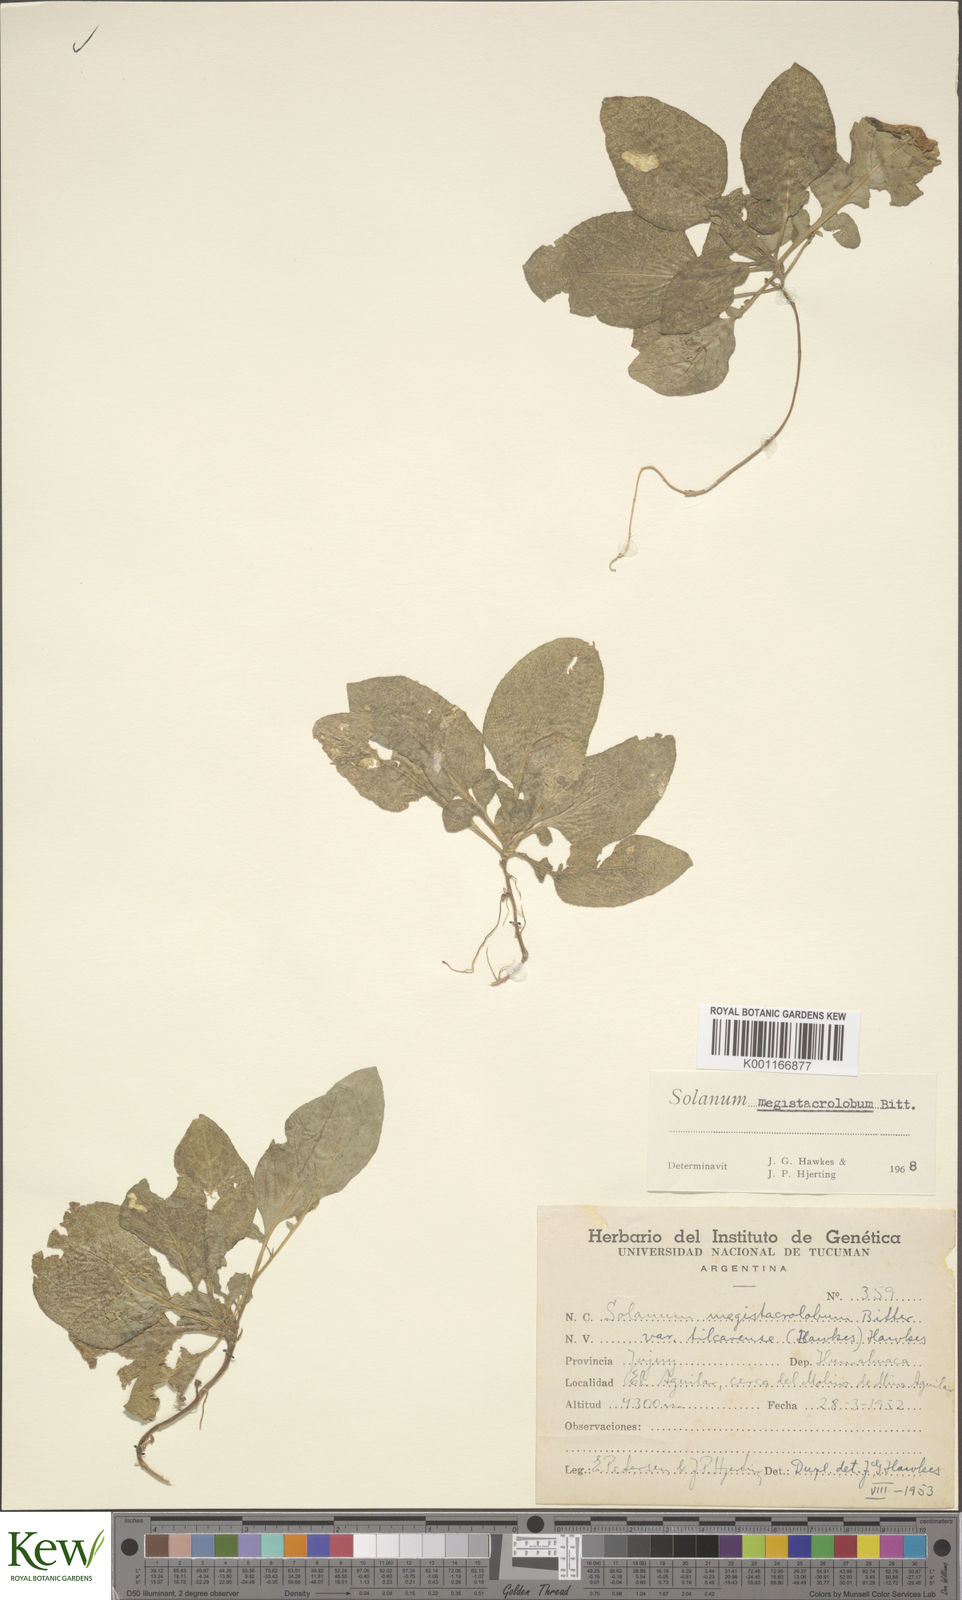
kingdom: Plantae
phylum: Tracheophyta
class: Magnoliopsida
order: Solanales
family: Solanaceae
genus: Solanum
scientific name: Solanum boliviense
